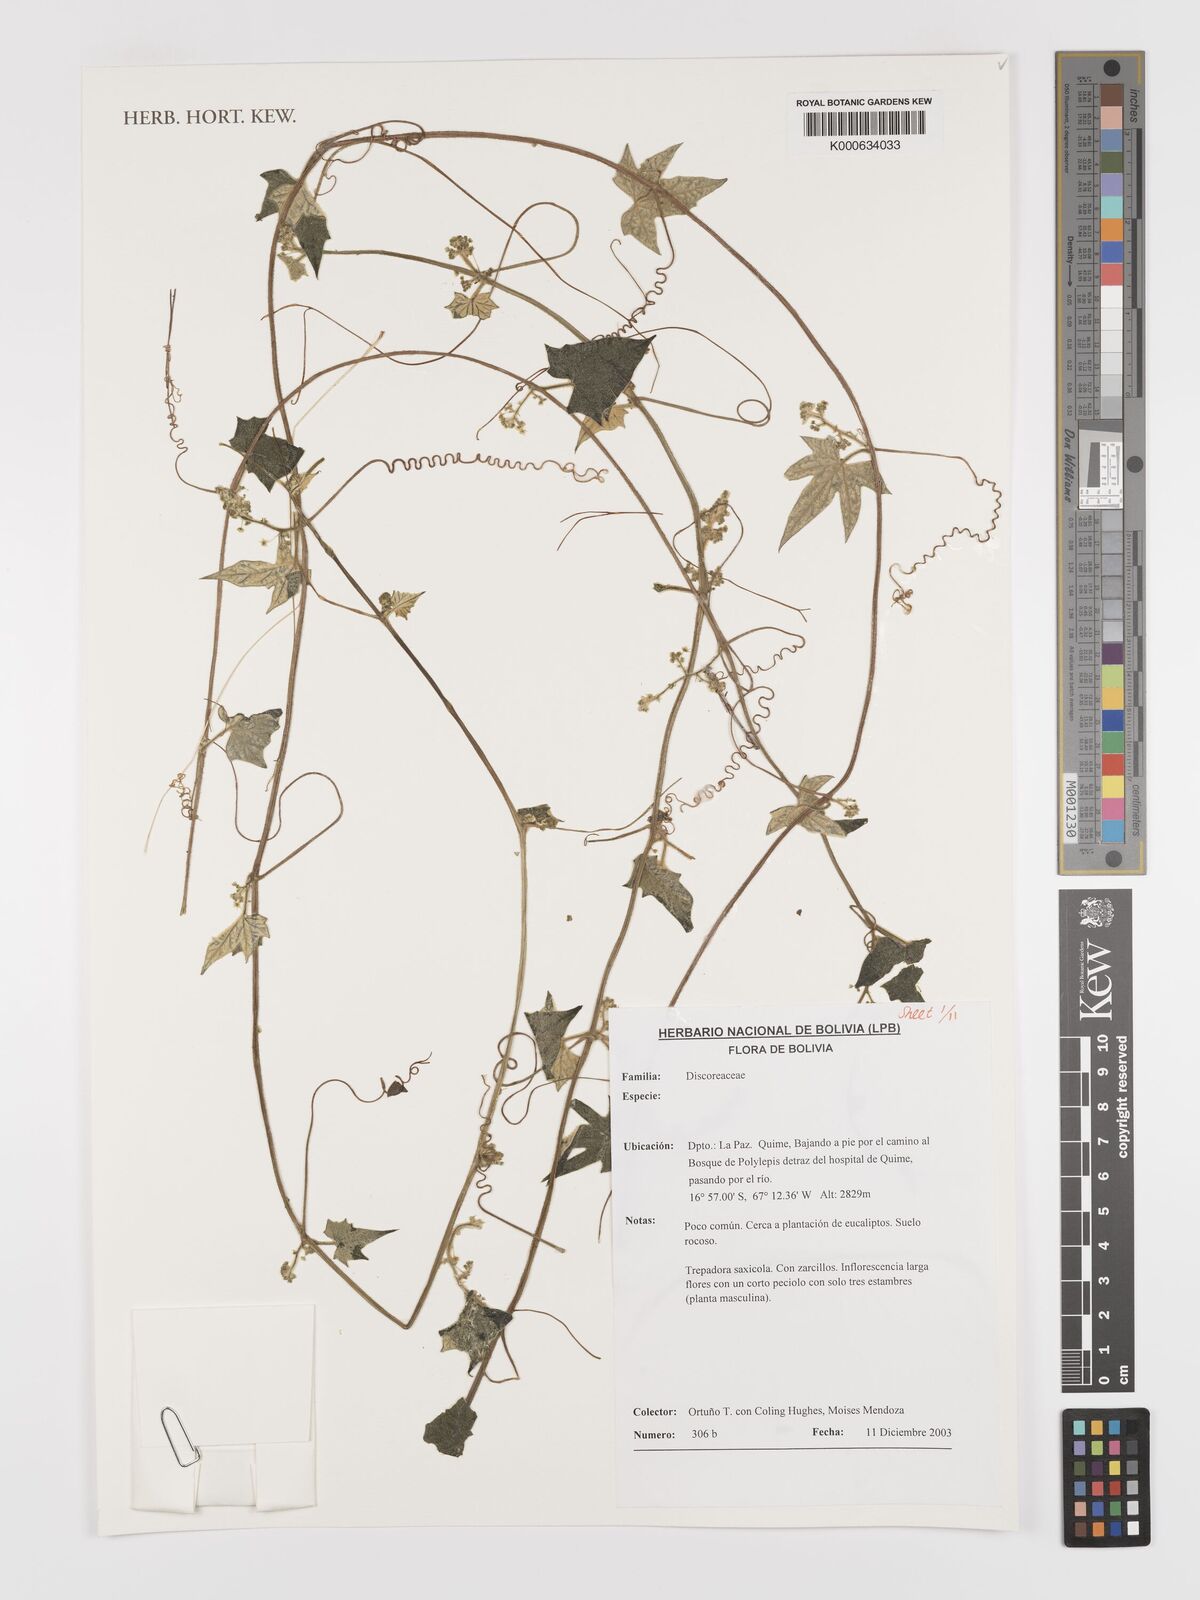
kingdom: Plantae
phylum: Tracheophyta
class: Magnoliopsida
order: Cucurbitales
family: Cucurbitaceae
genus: Cyclanthera
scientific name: Cyclanthera brachybotrys
